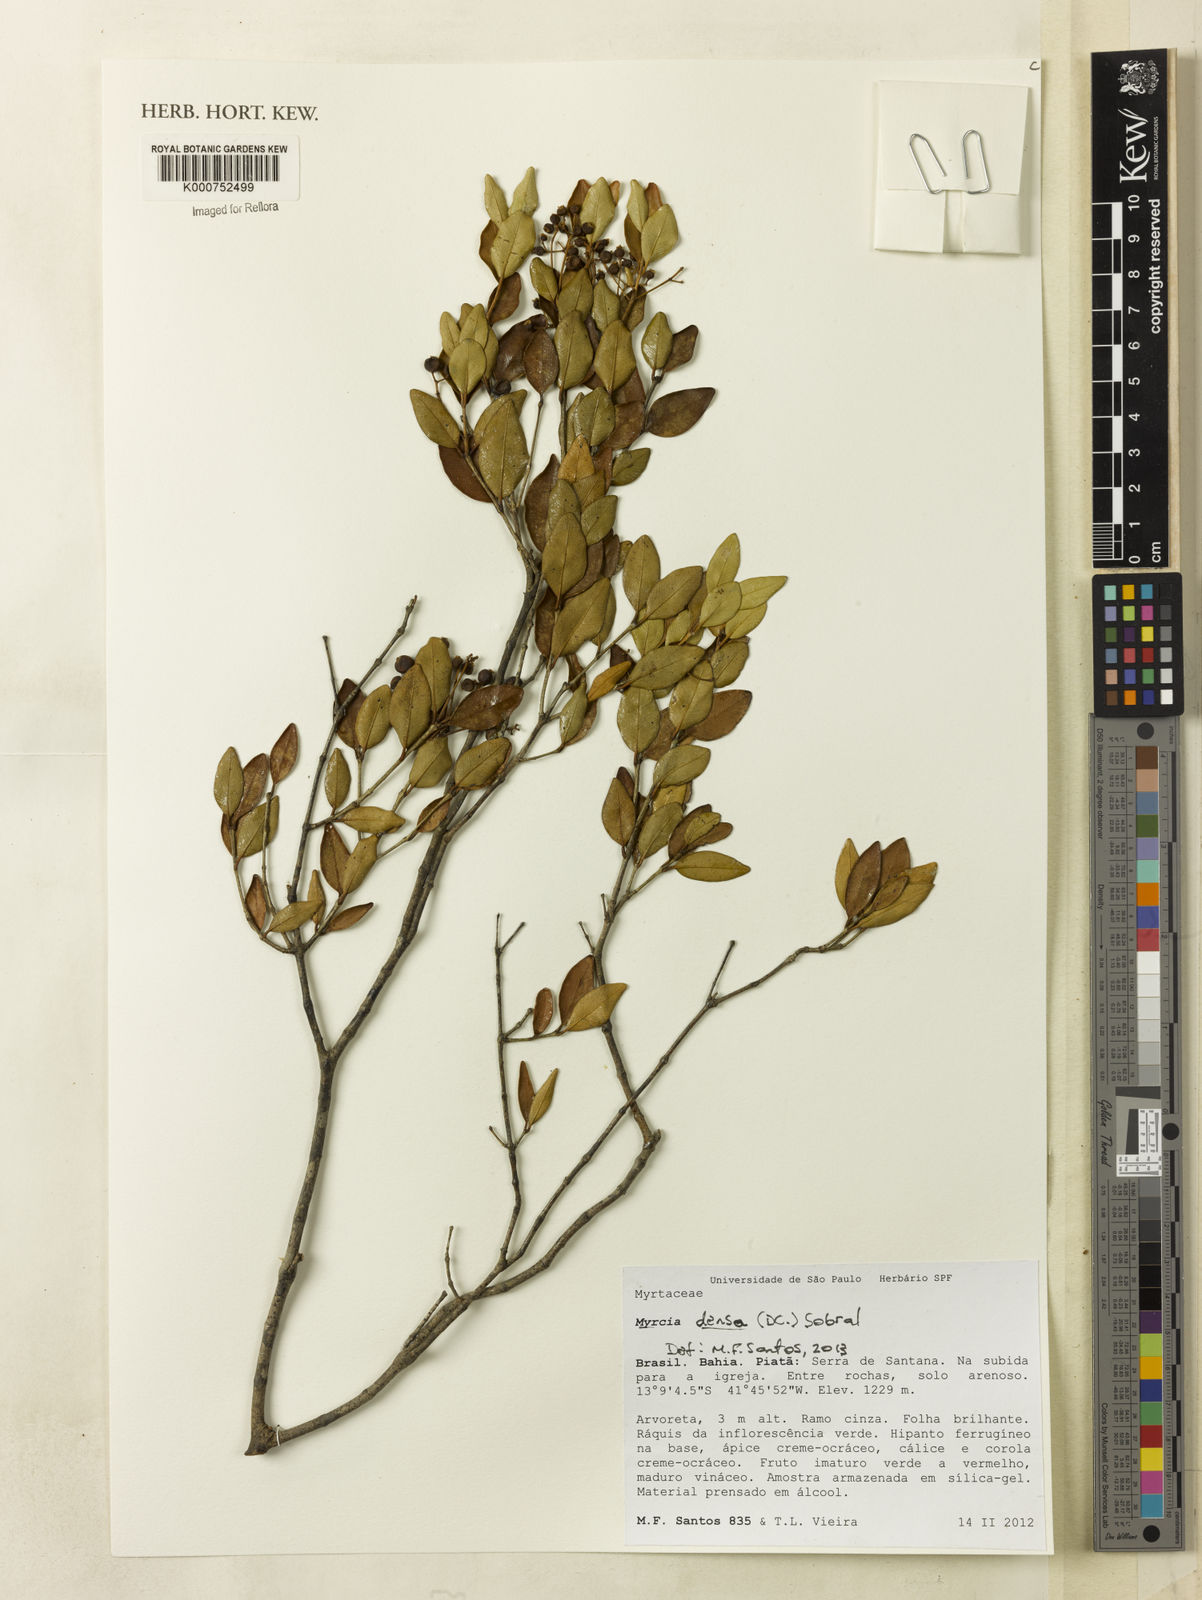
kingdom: Plantae
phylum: Tracheophyta
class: Magnoliopsida
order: Myrtales
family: Myrtaceae
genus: Myrcia
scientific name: Myrcia densa
